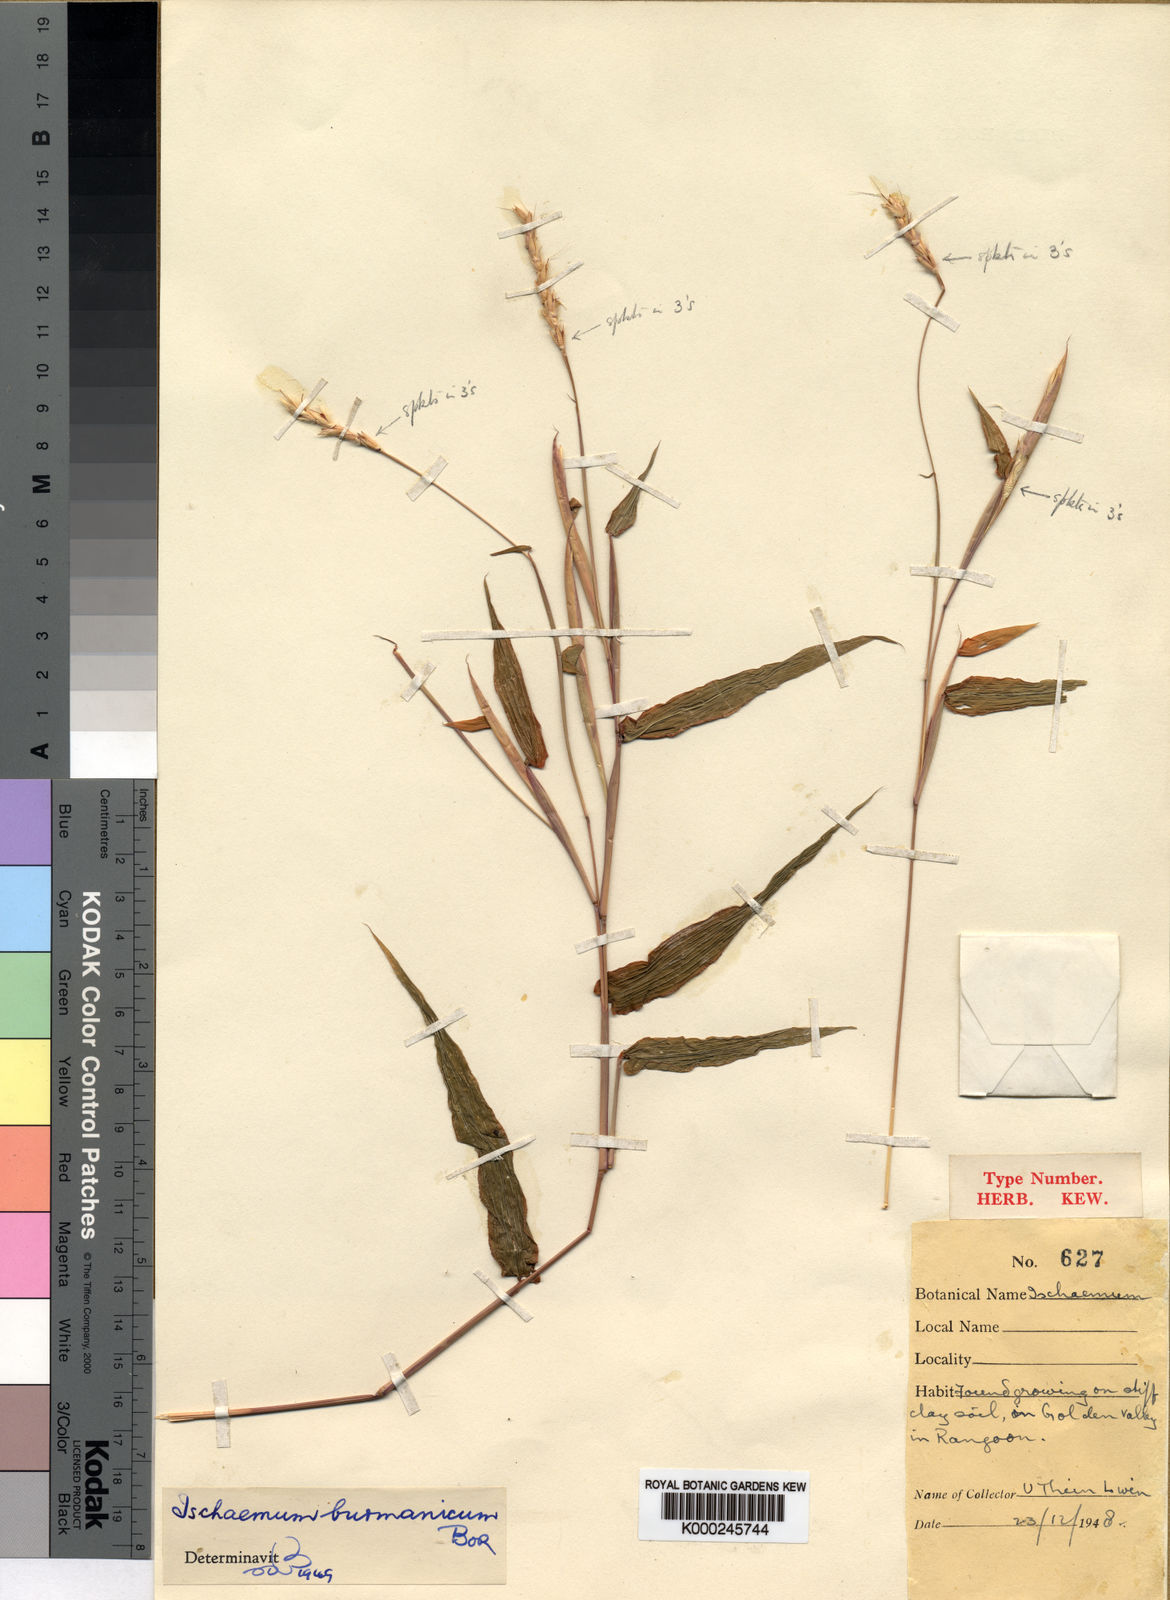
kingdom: Plantae
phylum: Tracheophyta
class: Liliopsida
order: Poales
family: Poaceae
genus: Ischaemum
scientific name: Ischaemum burmanicum
